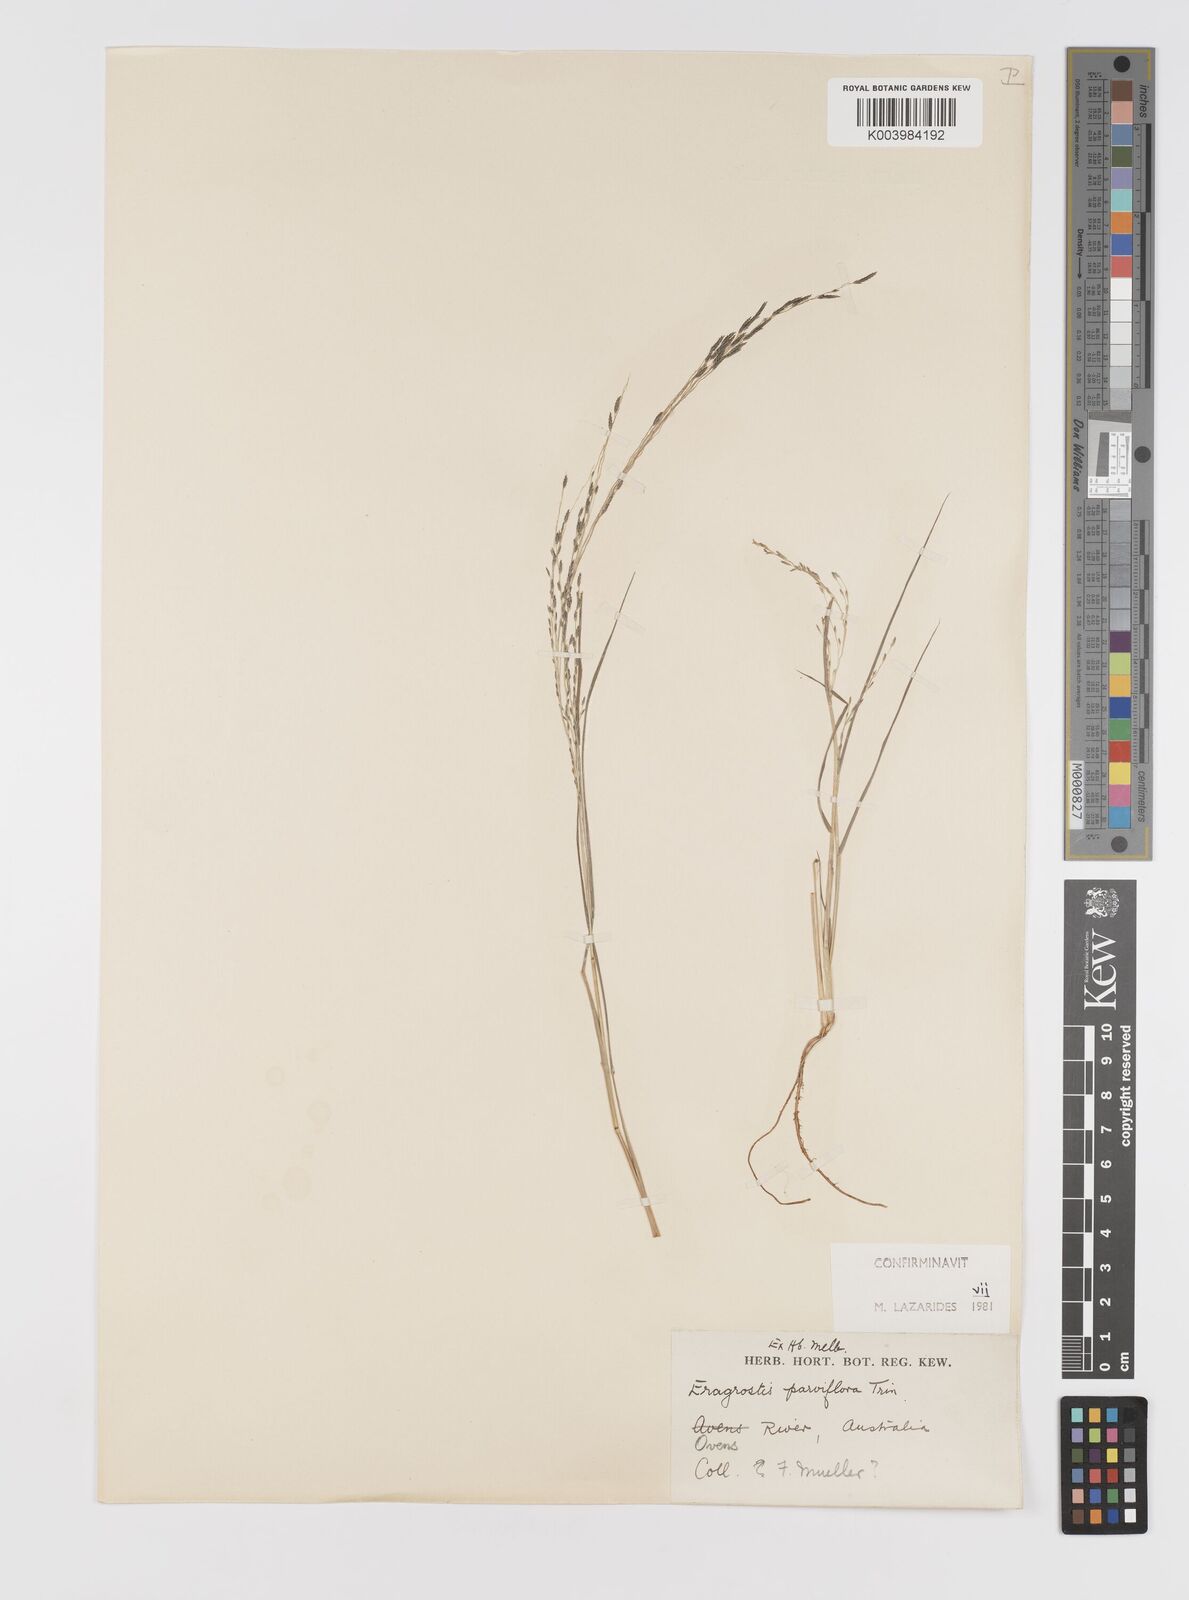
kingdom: Plantae
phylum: Tracheophyta
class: Liliopsida
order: Poales
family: Poaceae
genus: Eragrostis
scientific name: Eragrostis parviflora
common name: Weeping love-grass
